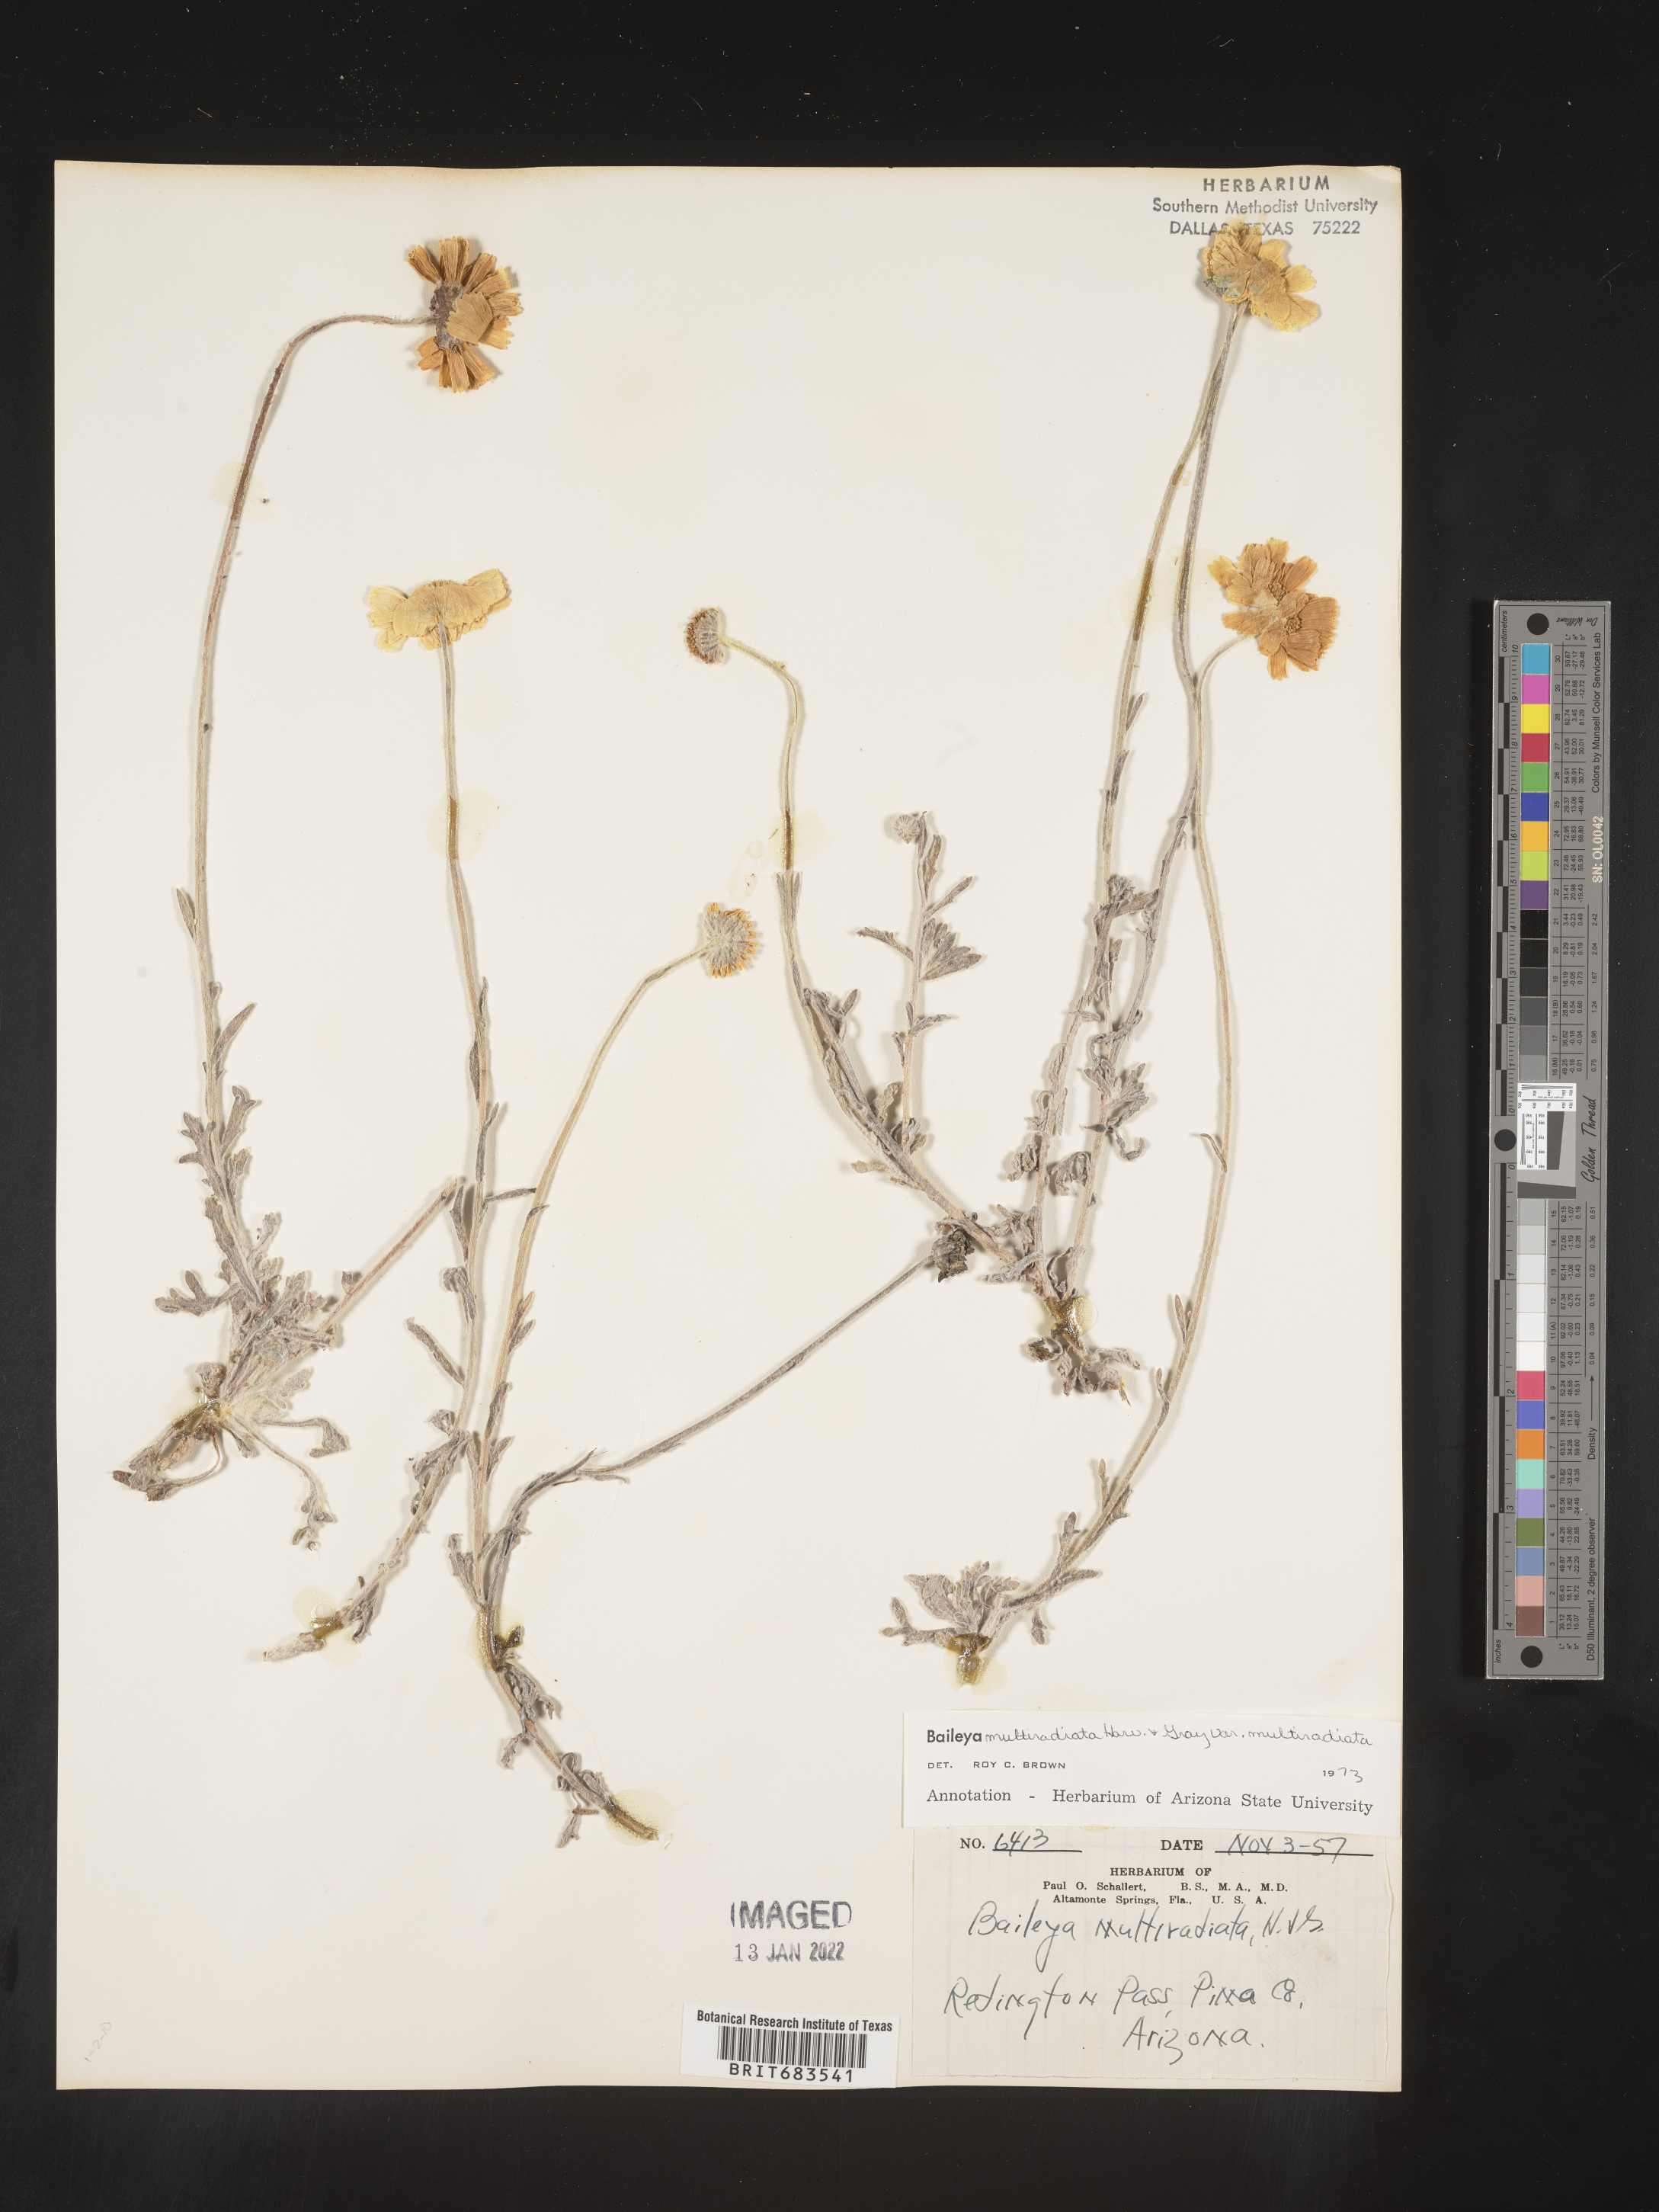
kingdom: Plantae
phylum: Tracheophyta
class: Magnoliopsida
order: Asterales
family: Asteraceae
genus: Baileya
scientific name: Baileya multiradiata
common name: Desert-marigold
